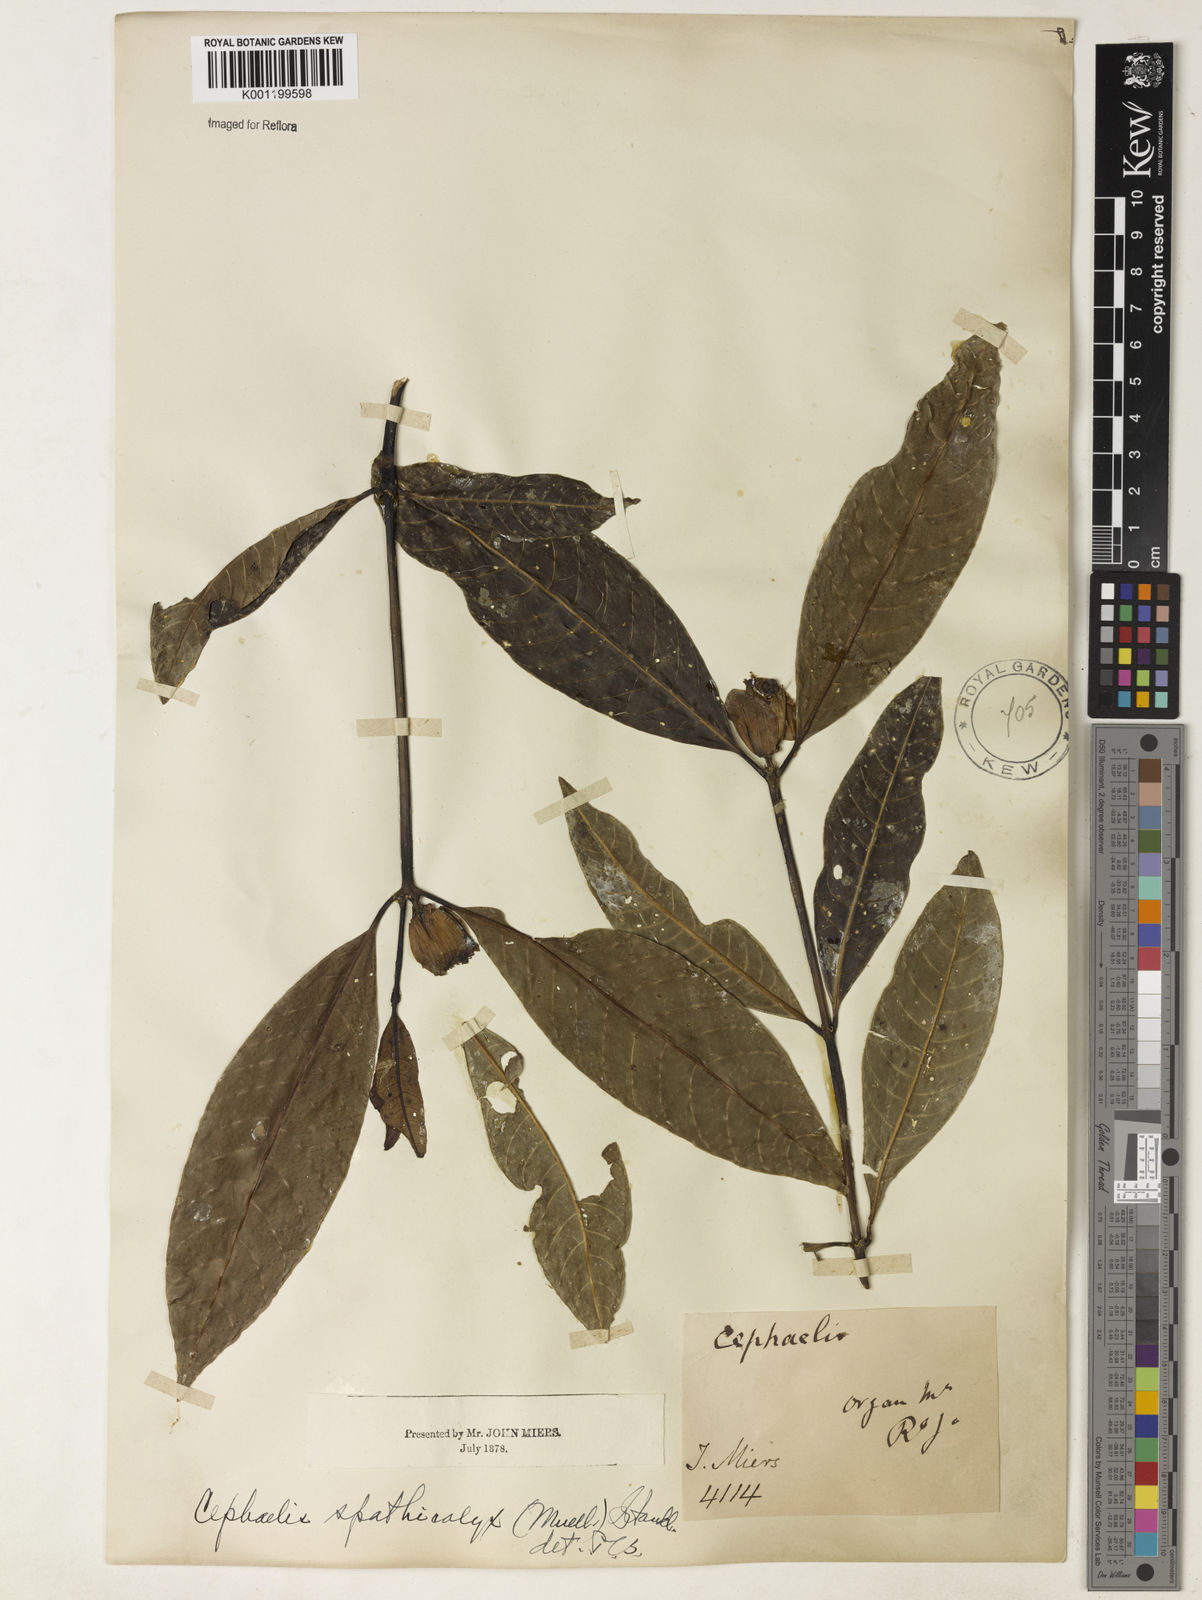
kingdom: Plantae
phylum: Tracheophyta
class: Magnoliopsida
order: Gentianales
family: Rubiaceae
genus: Psychotria
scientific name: Psychotria
